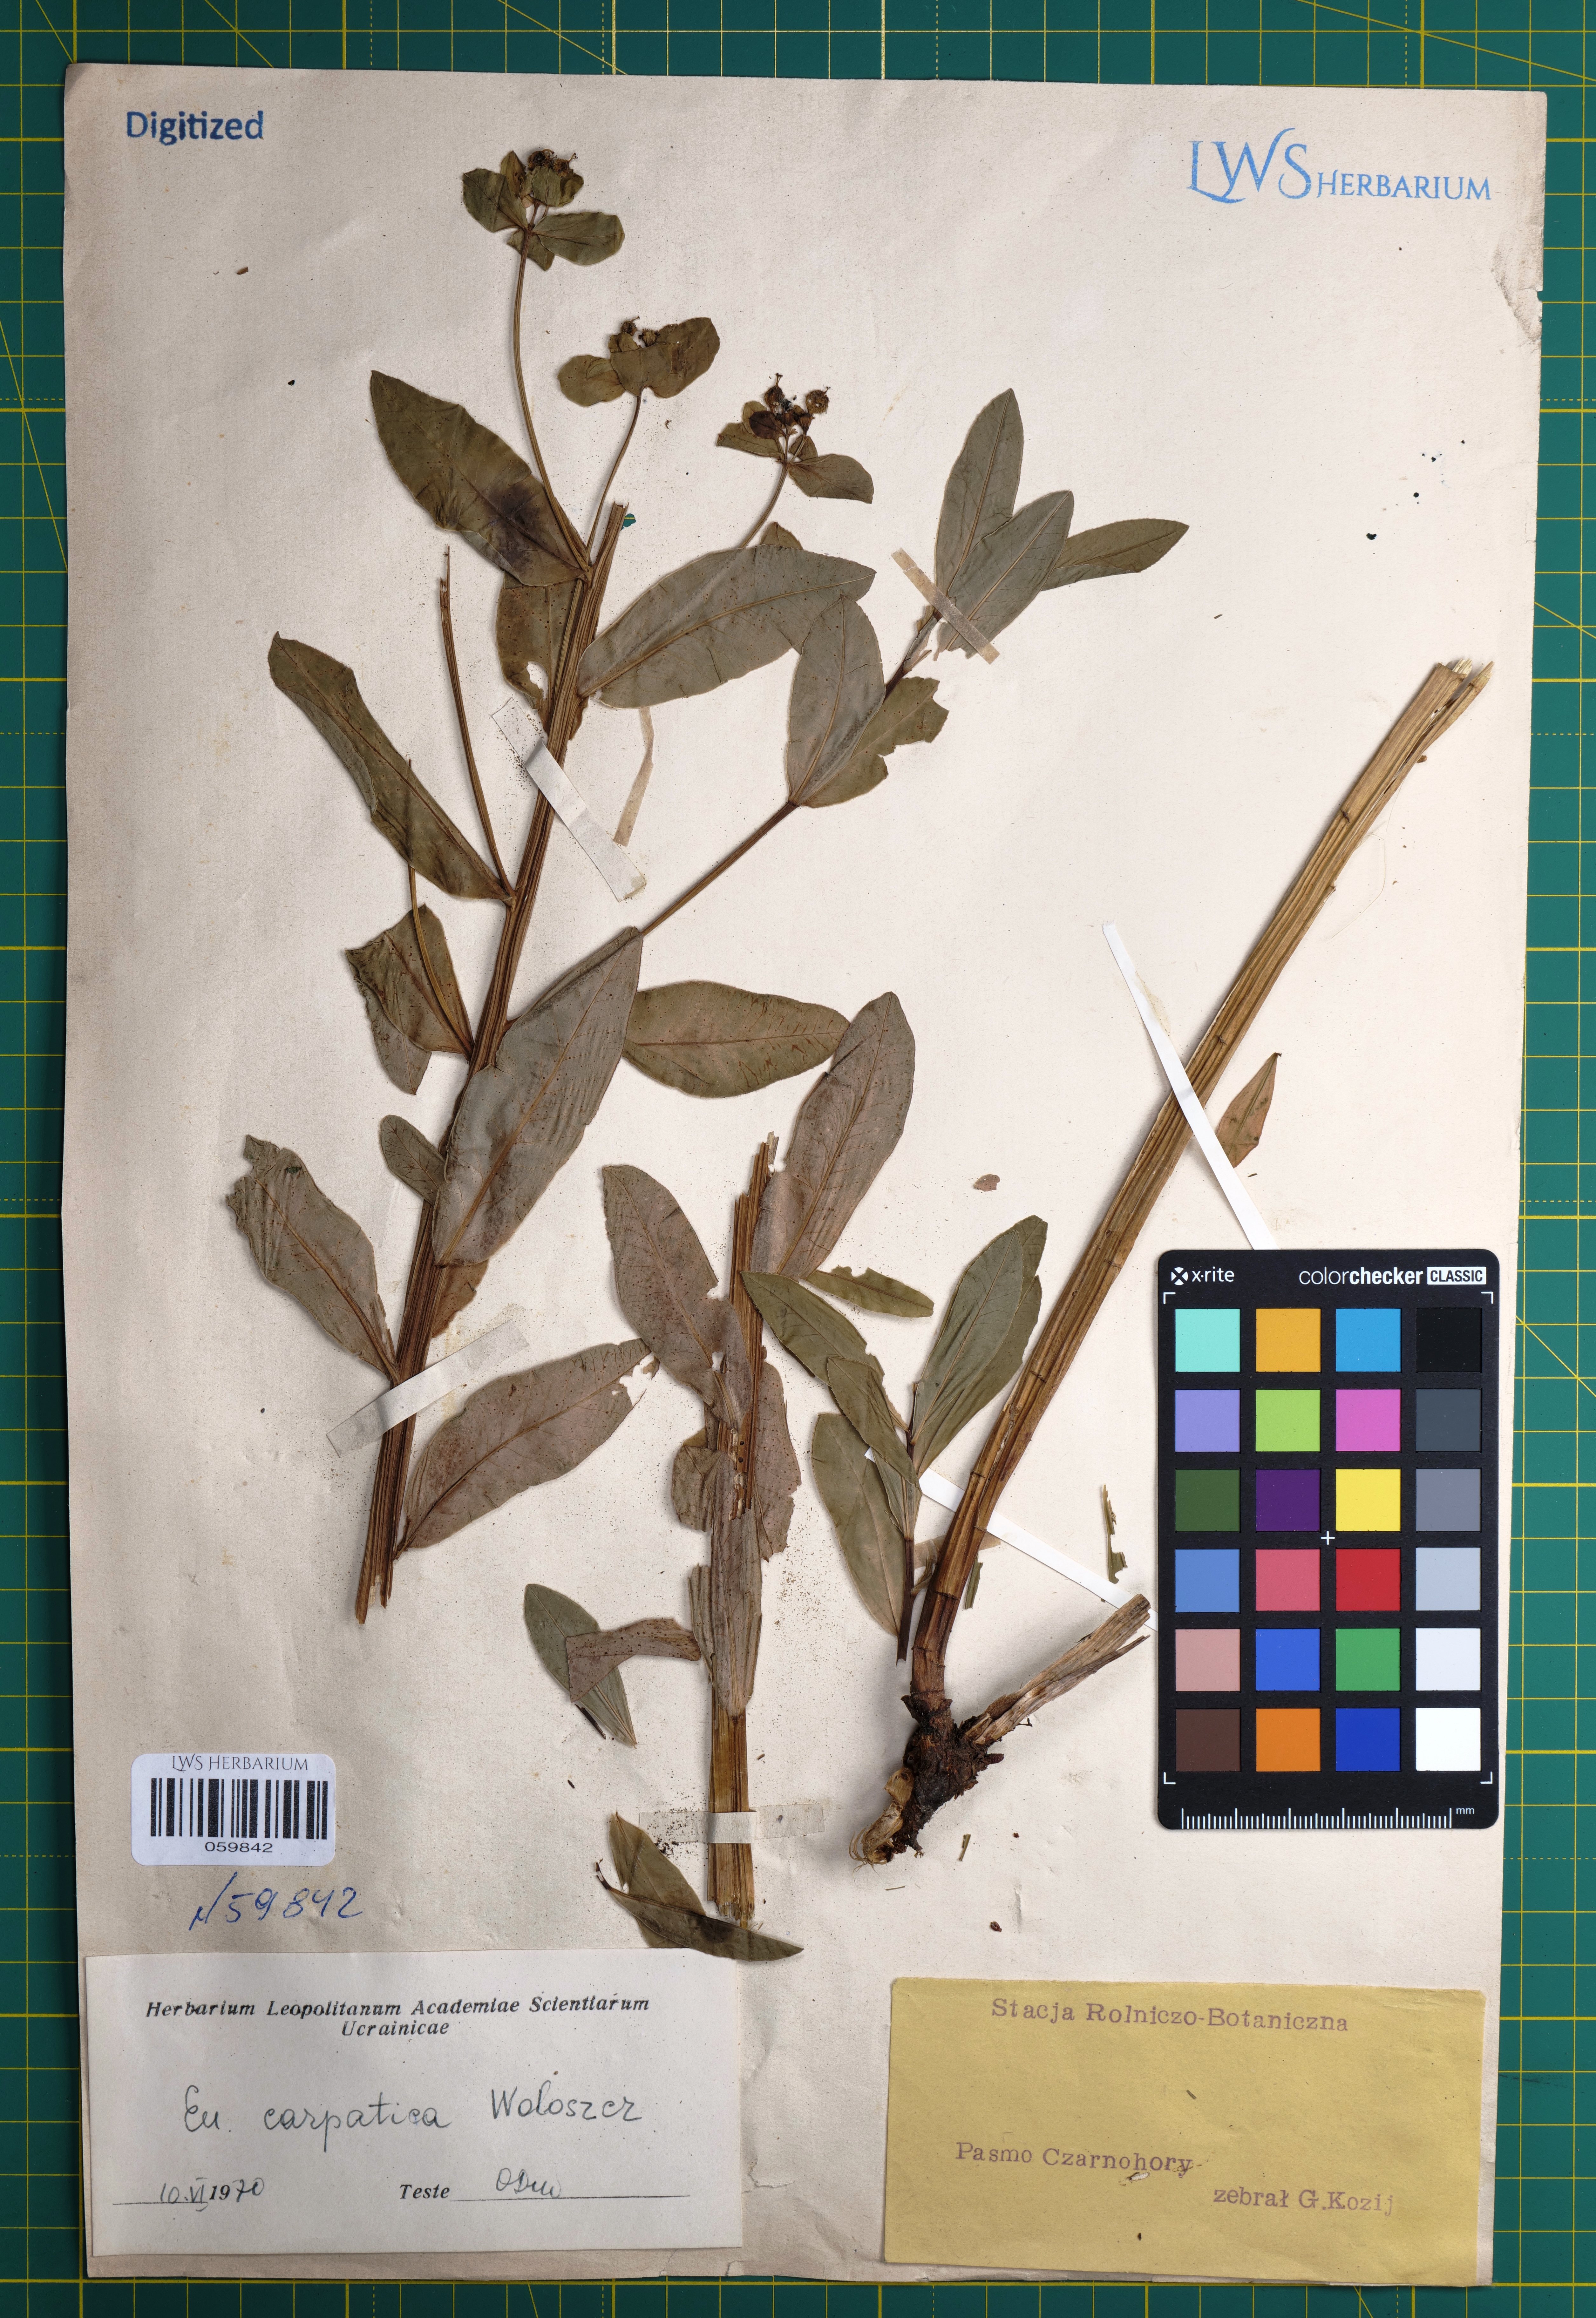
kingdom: Plantae
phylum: Tracheophyta
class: Magnoliopsida
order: Malpighiales
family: Euphorbiaceae
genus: Euphorbia
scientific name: Euphorbia carpatica
